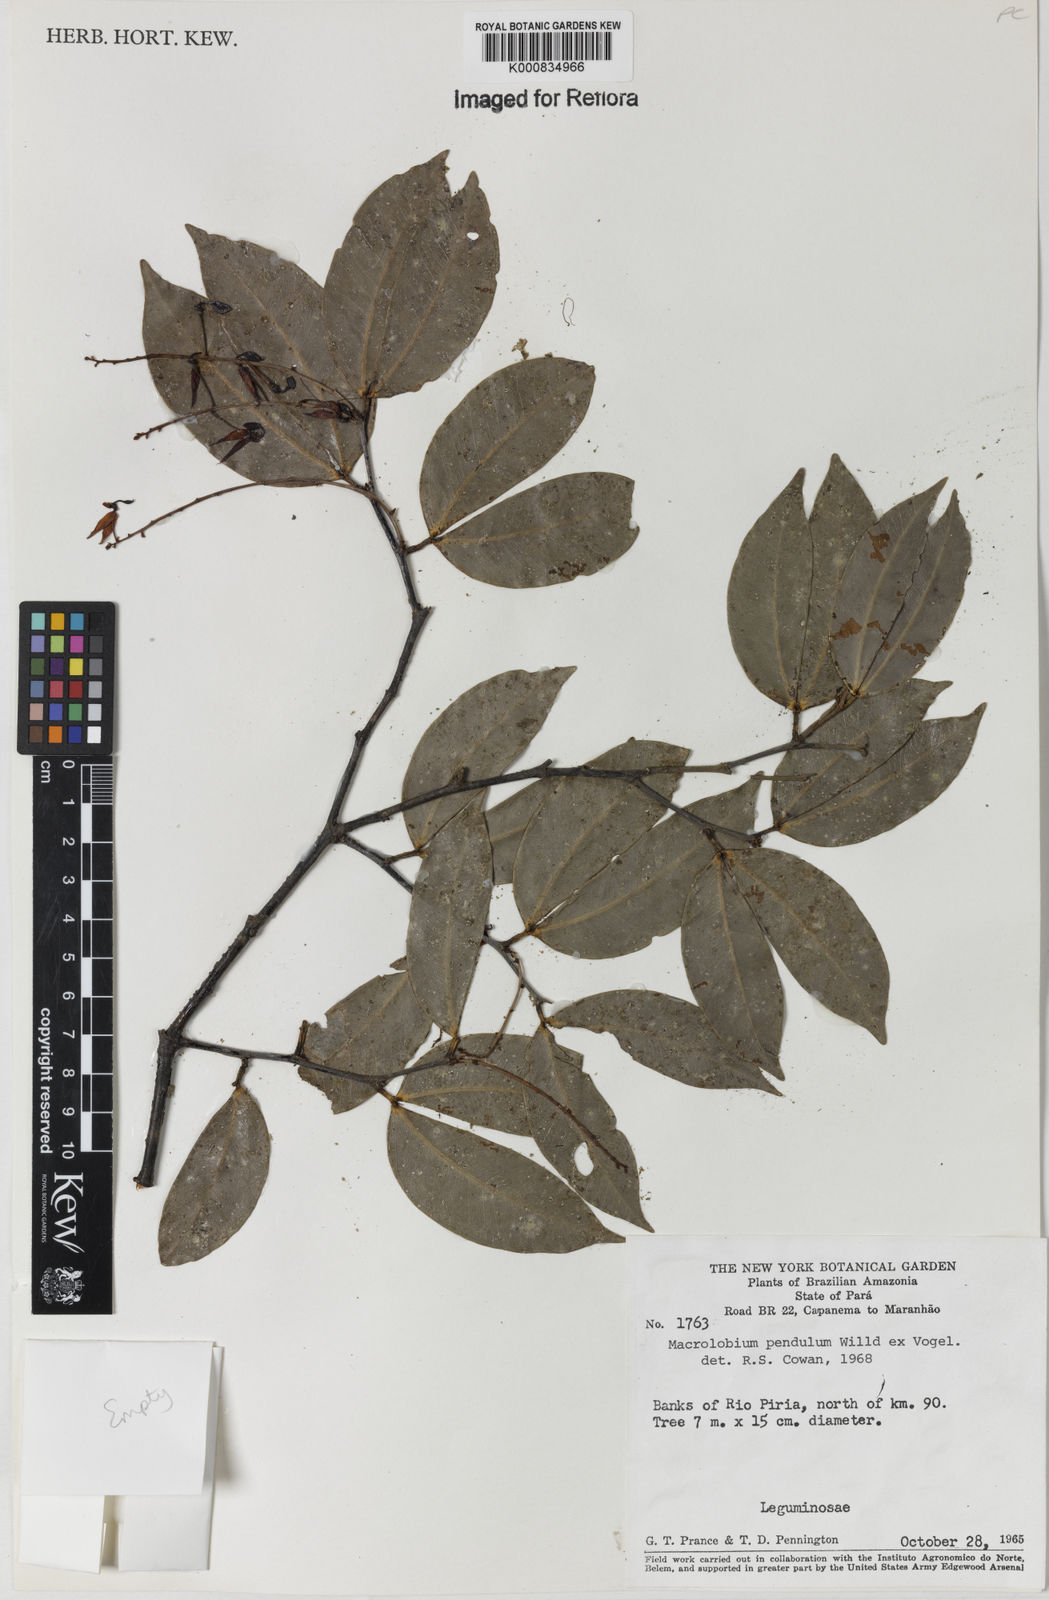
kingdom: Plantae
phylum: Tracheophyta
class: Magnoliopsida
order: Fabales
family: Fabaceae
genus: Macrolobium
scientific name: Macrolobium pendulum
